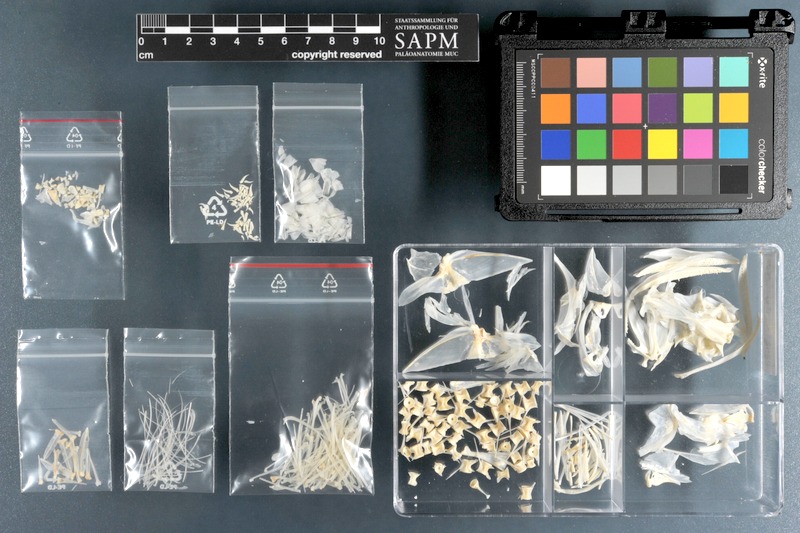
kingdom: Animalia
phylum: Chordata
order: Aulopiformes
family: Synodontidae
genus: Saurida
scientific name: Saurida tumbil
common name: Greater lizardfish
